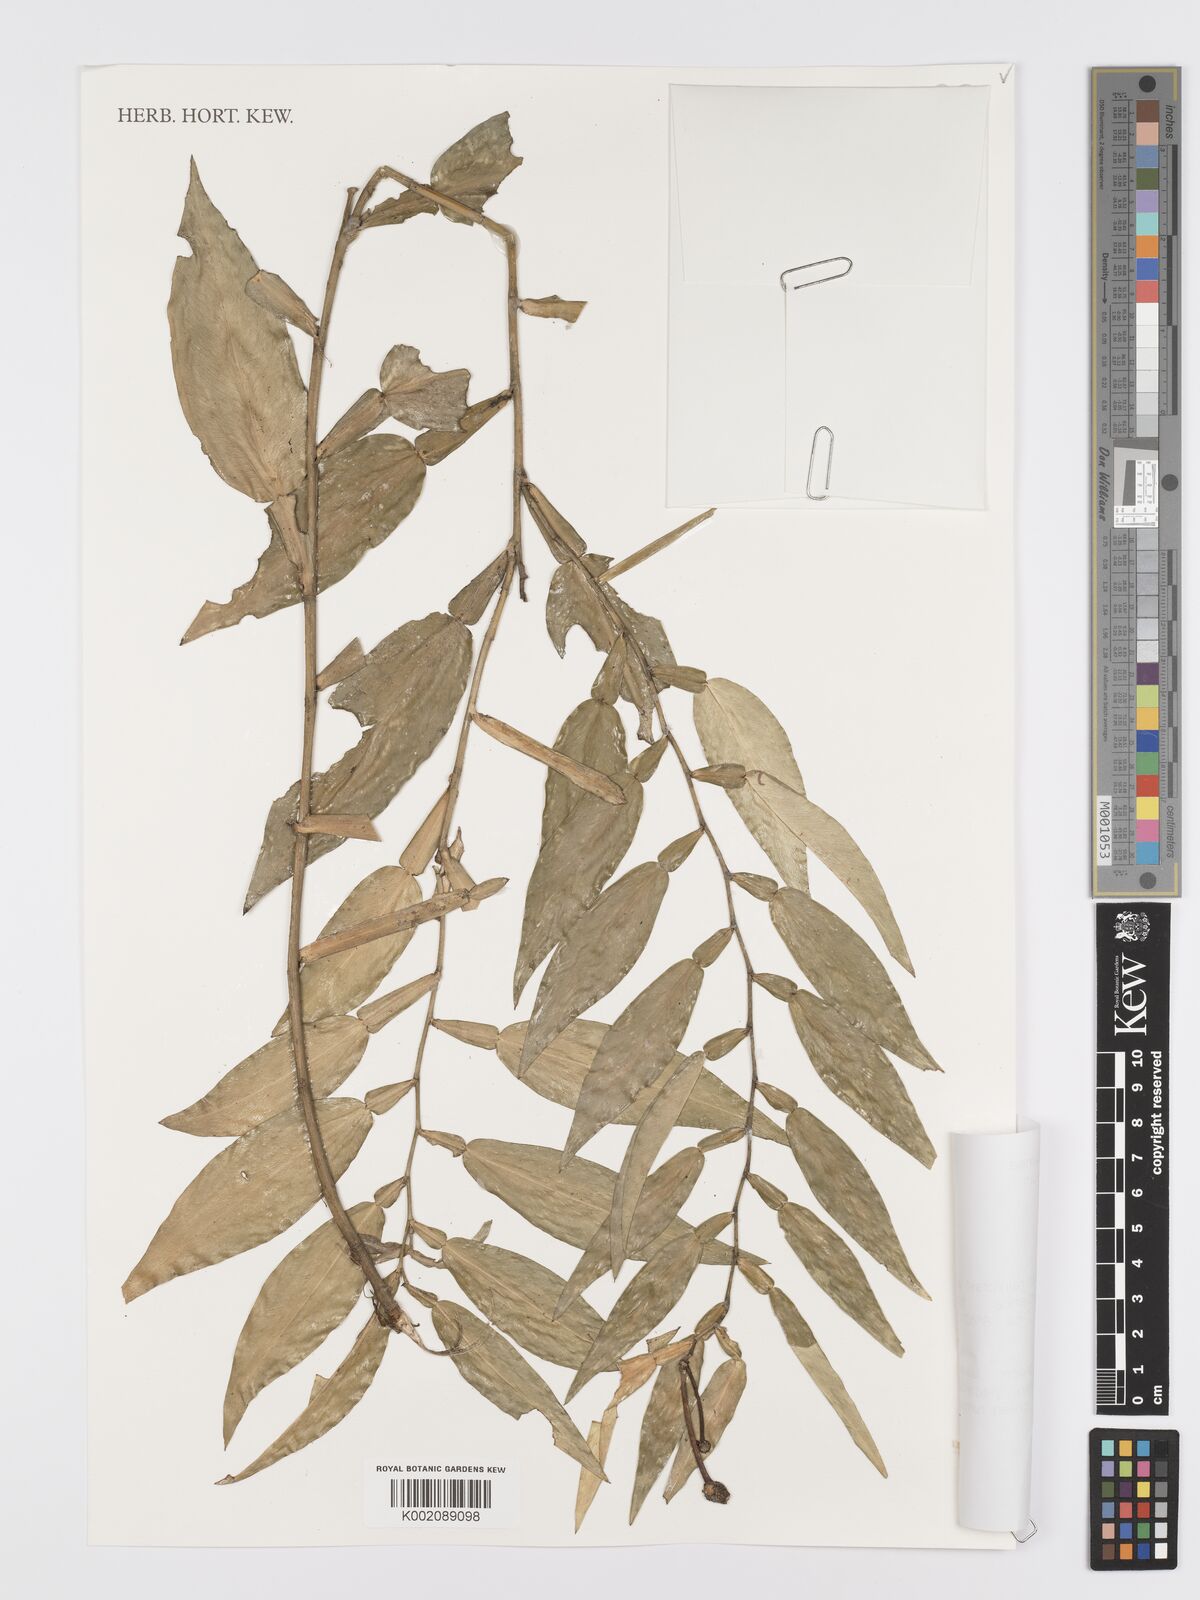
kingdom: Plantae
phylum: Tracheophyta
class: Liliopsida
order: Alismatales
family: Araceae
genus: Pothos
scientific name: Pothos hellwigii
